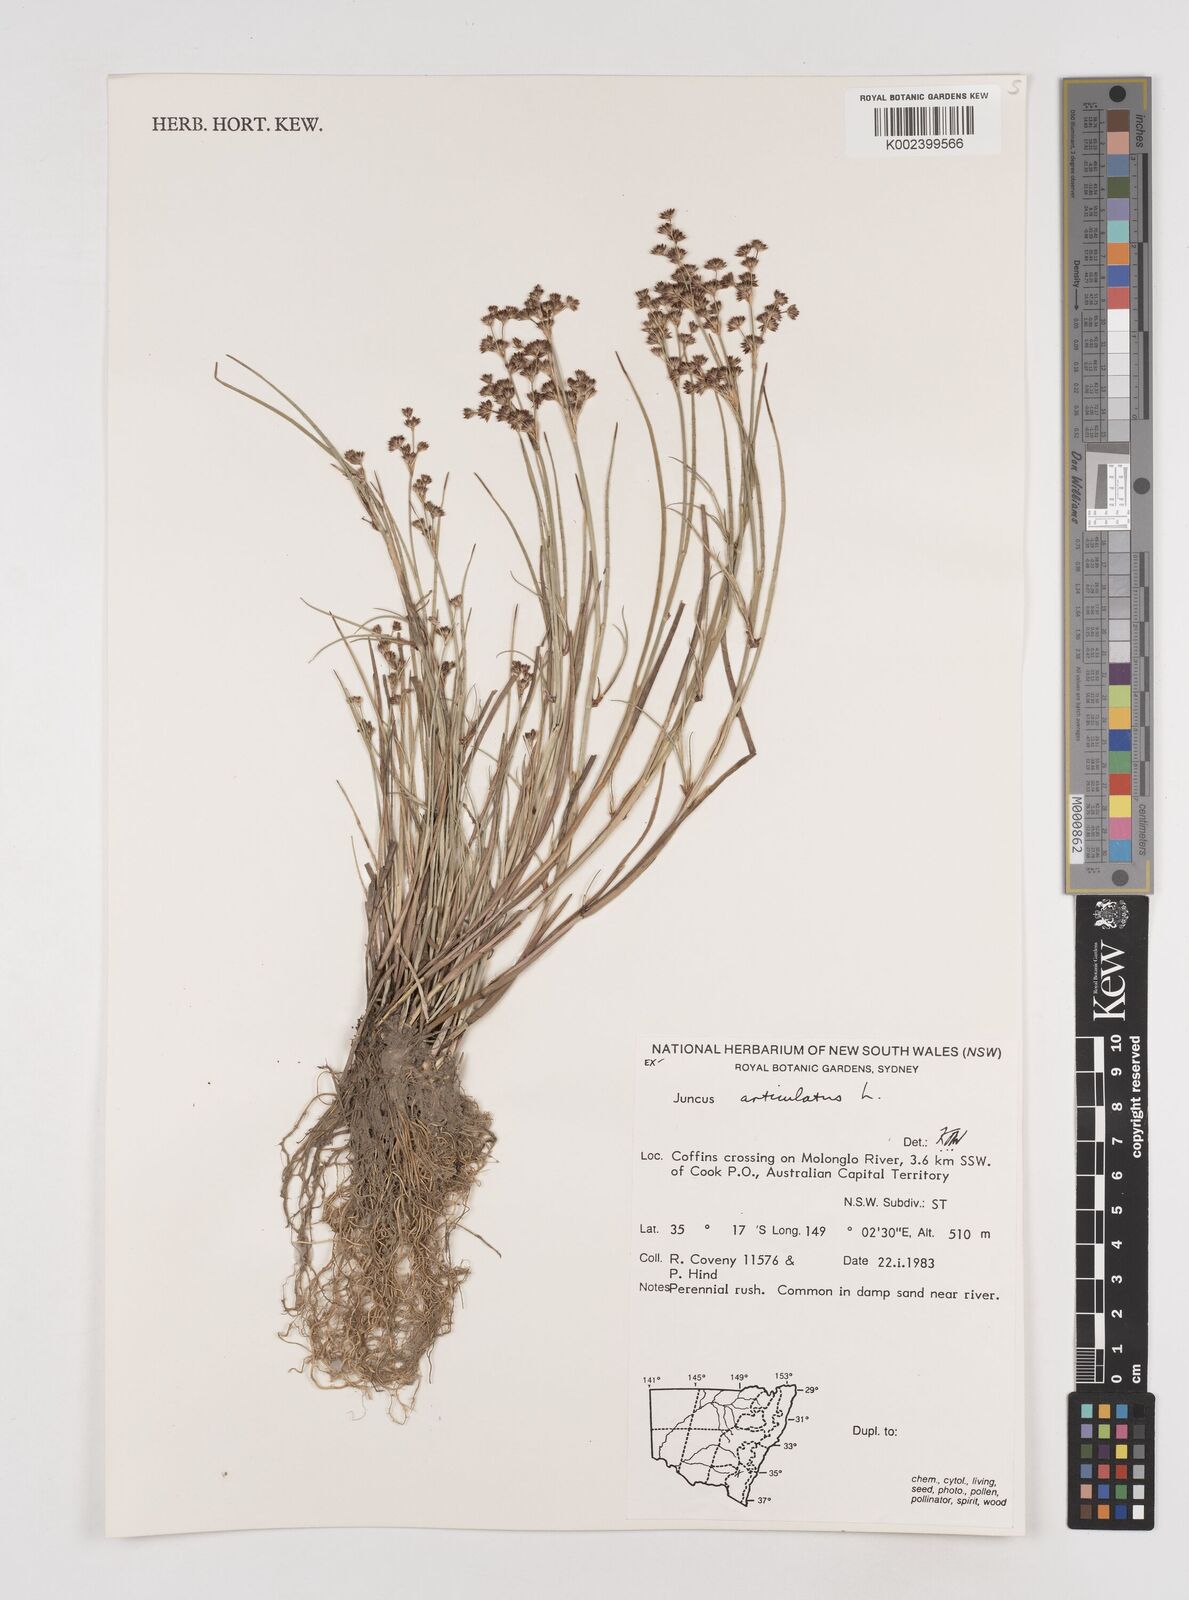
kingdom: Plantae
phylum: Tracheophyta
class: Liliopsida
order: Poales
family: Juncaceae
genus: Juncus
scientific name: Juncus articulatus
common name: Jointed rush
